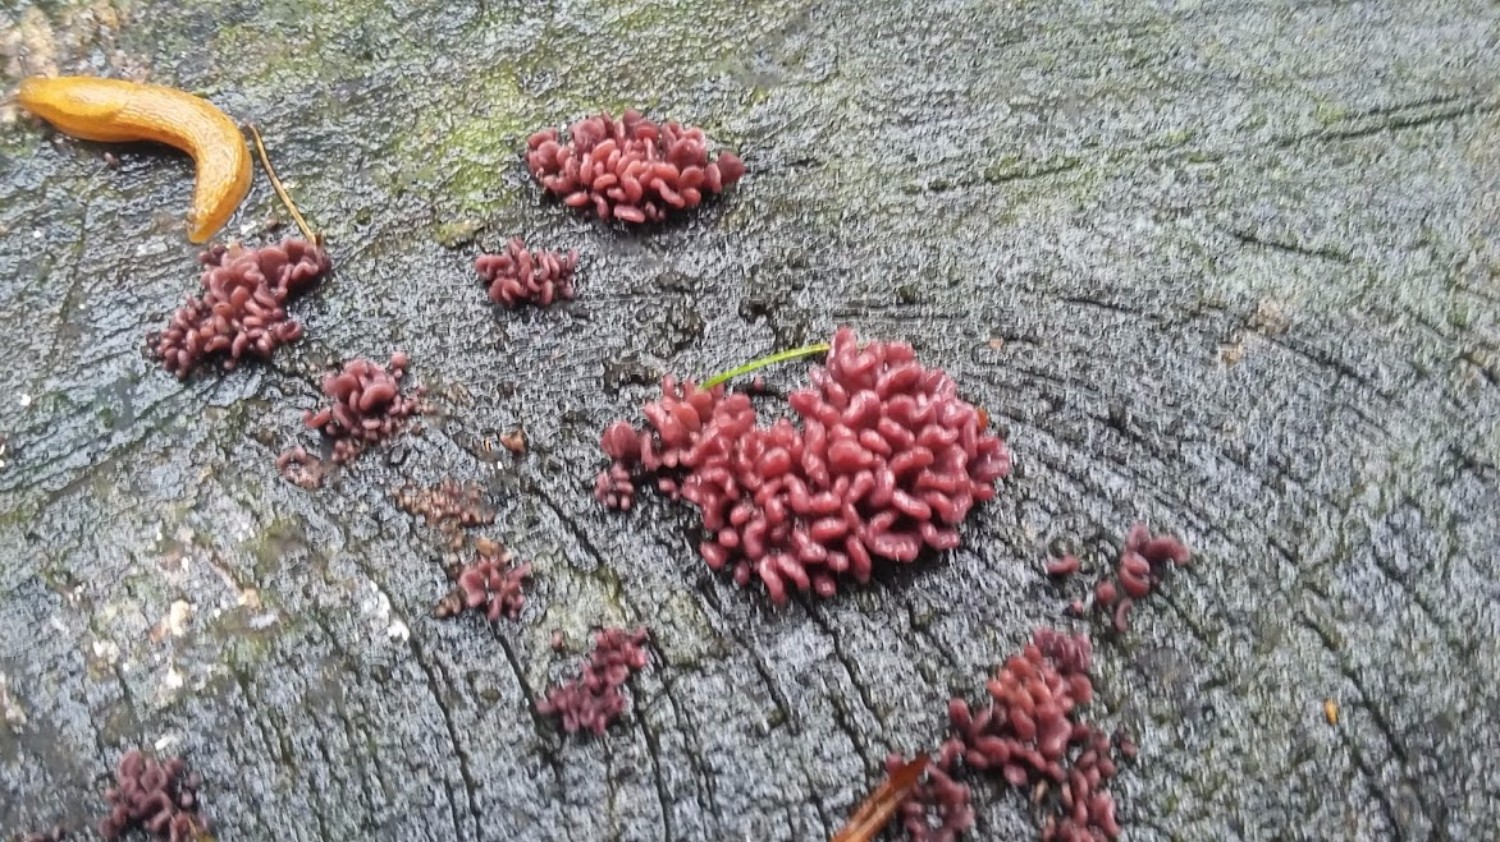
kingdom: Fungi
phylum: Ascomycota
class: Leotiomycetes
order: Helotiales
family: Gelatinodiscaceae
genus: Ascocoryne
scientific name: Ascocoryne sarcoides
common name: rødlilla sejskive
